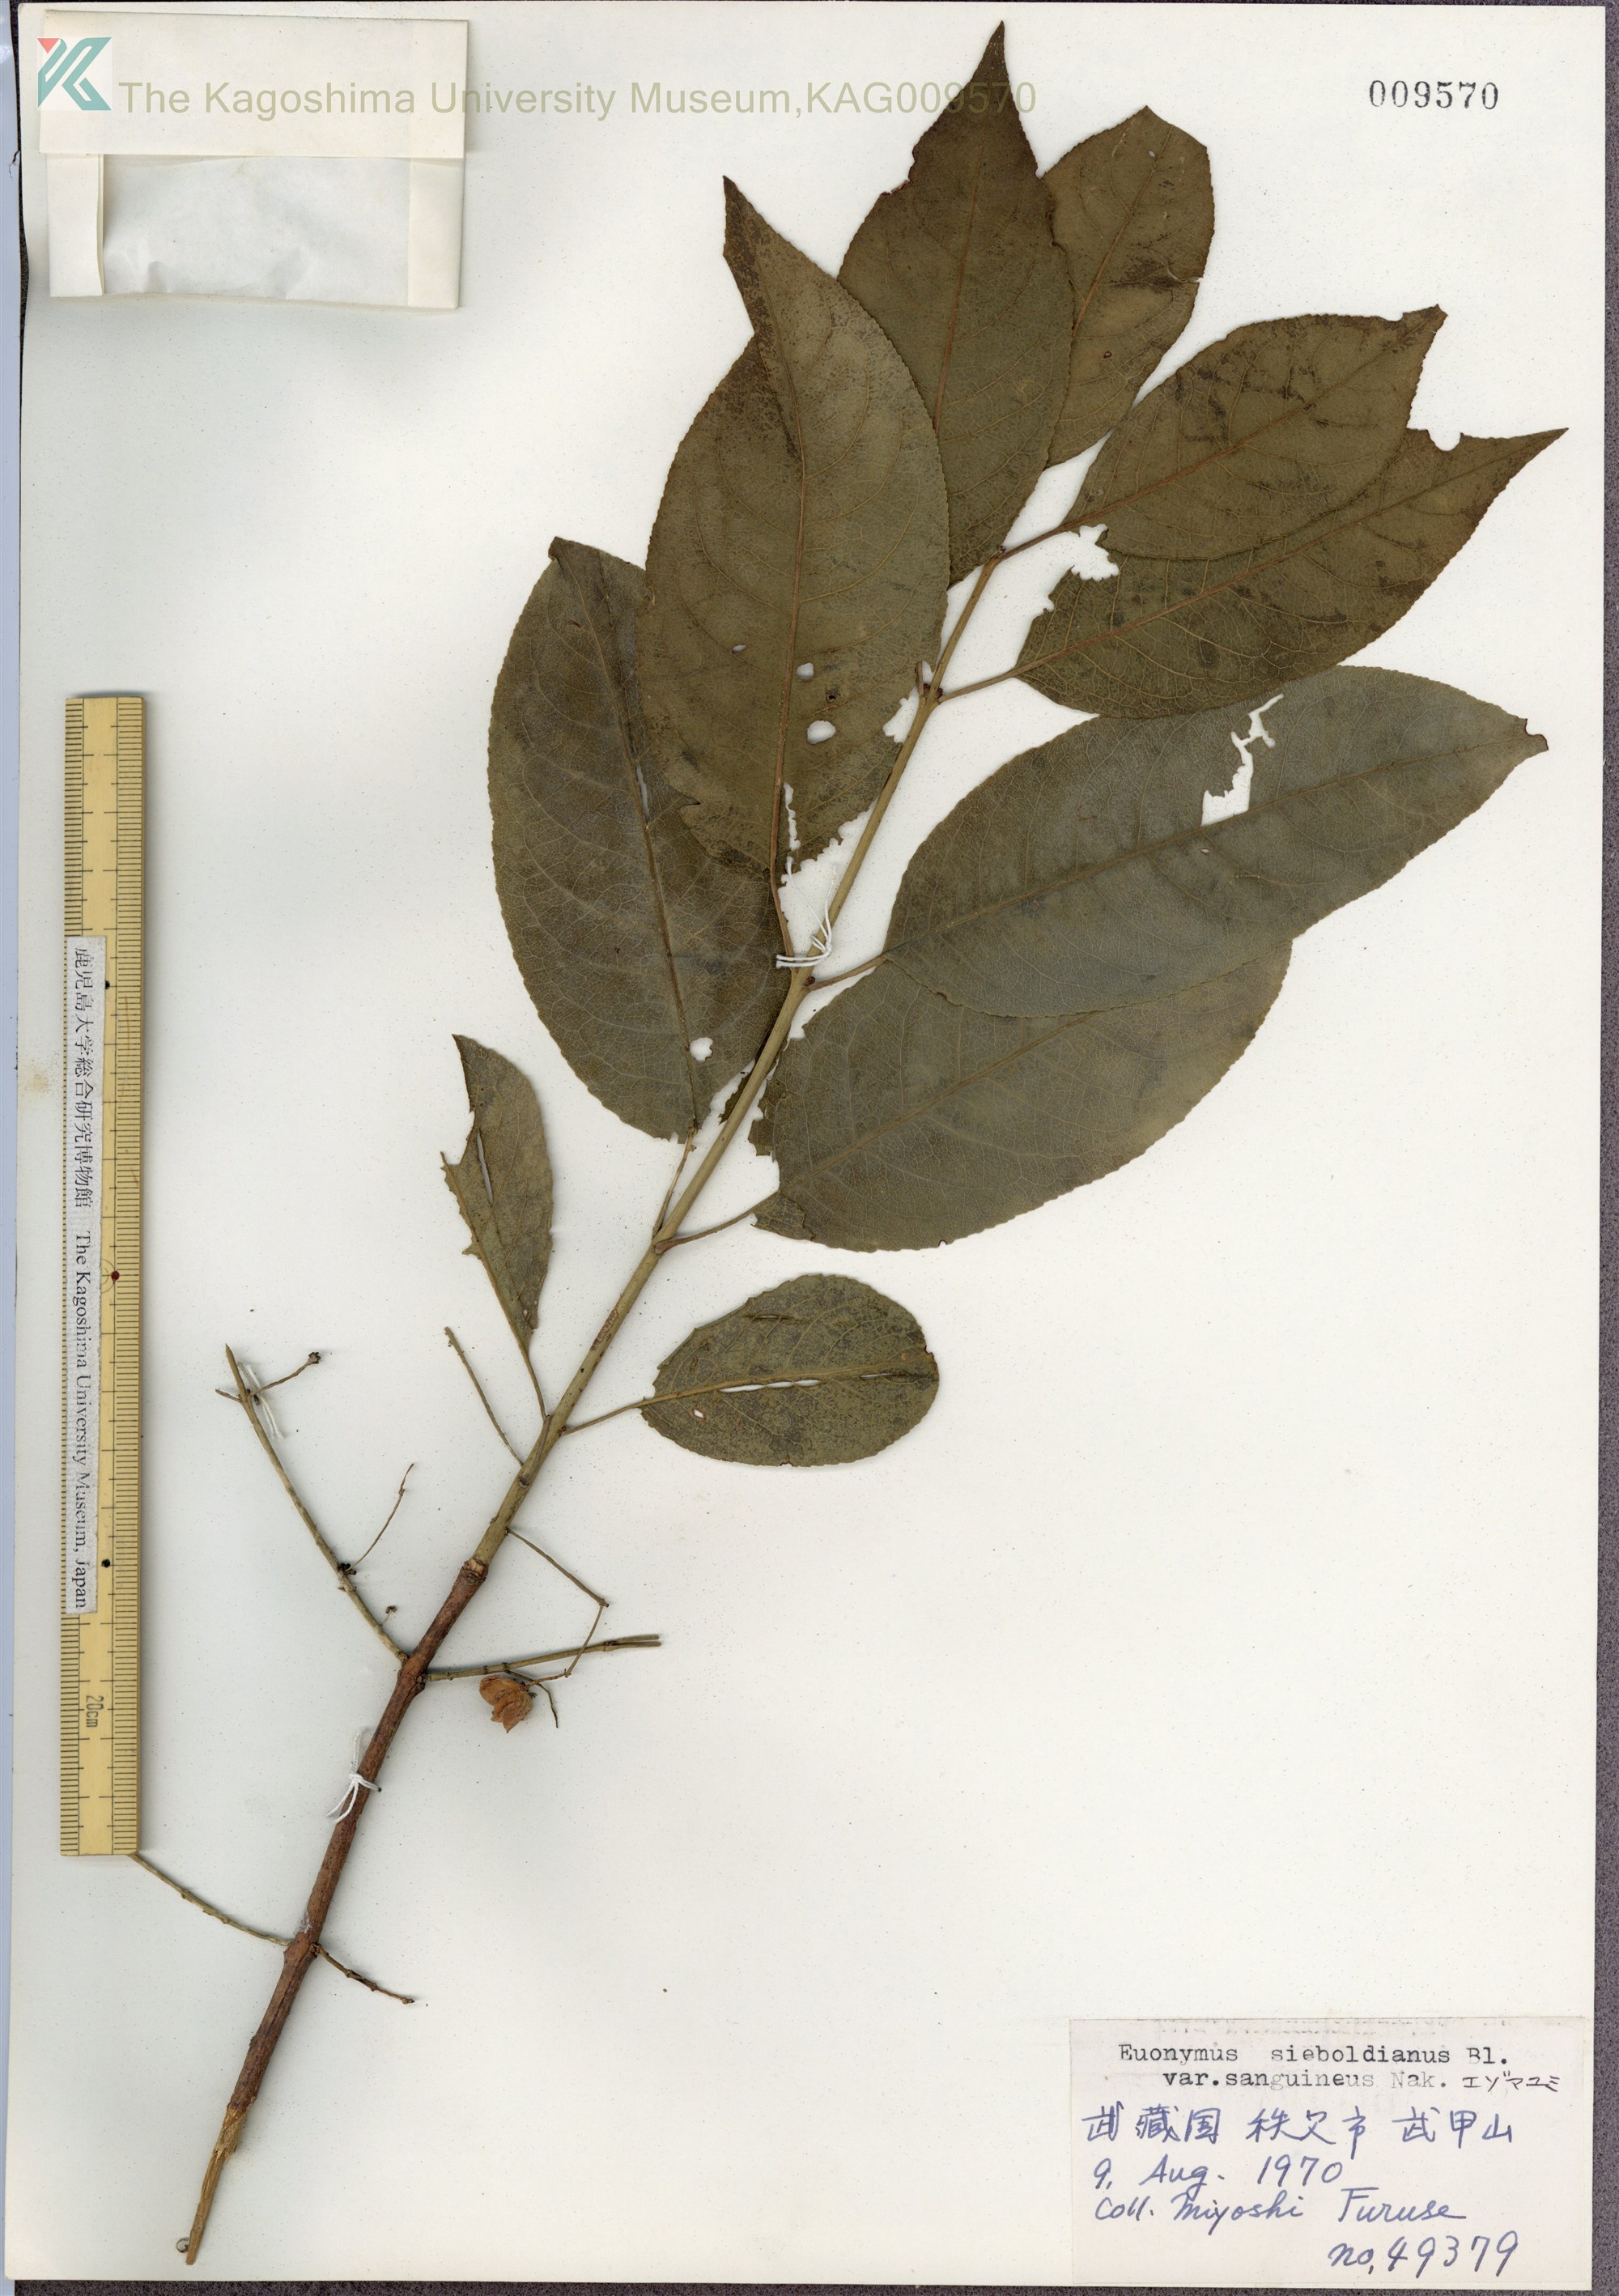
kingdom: Plantae
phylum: Tracheophyta
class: Magnoliopsida
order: Celastrales
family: Celastraceae
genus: Euonymus
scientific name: Euonymus hamiltonianus
